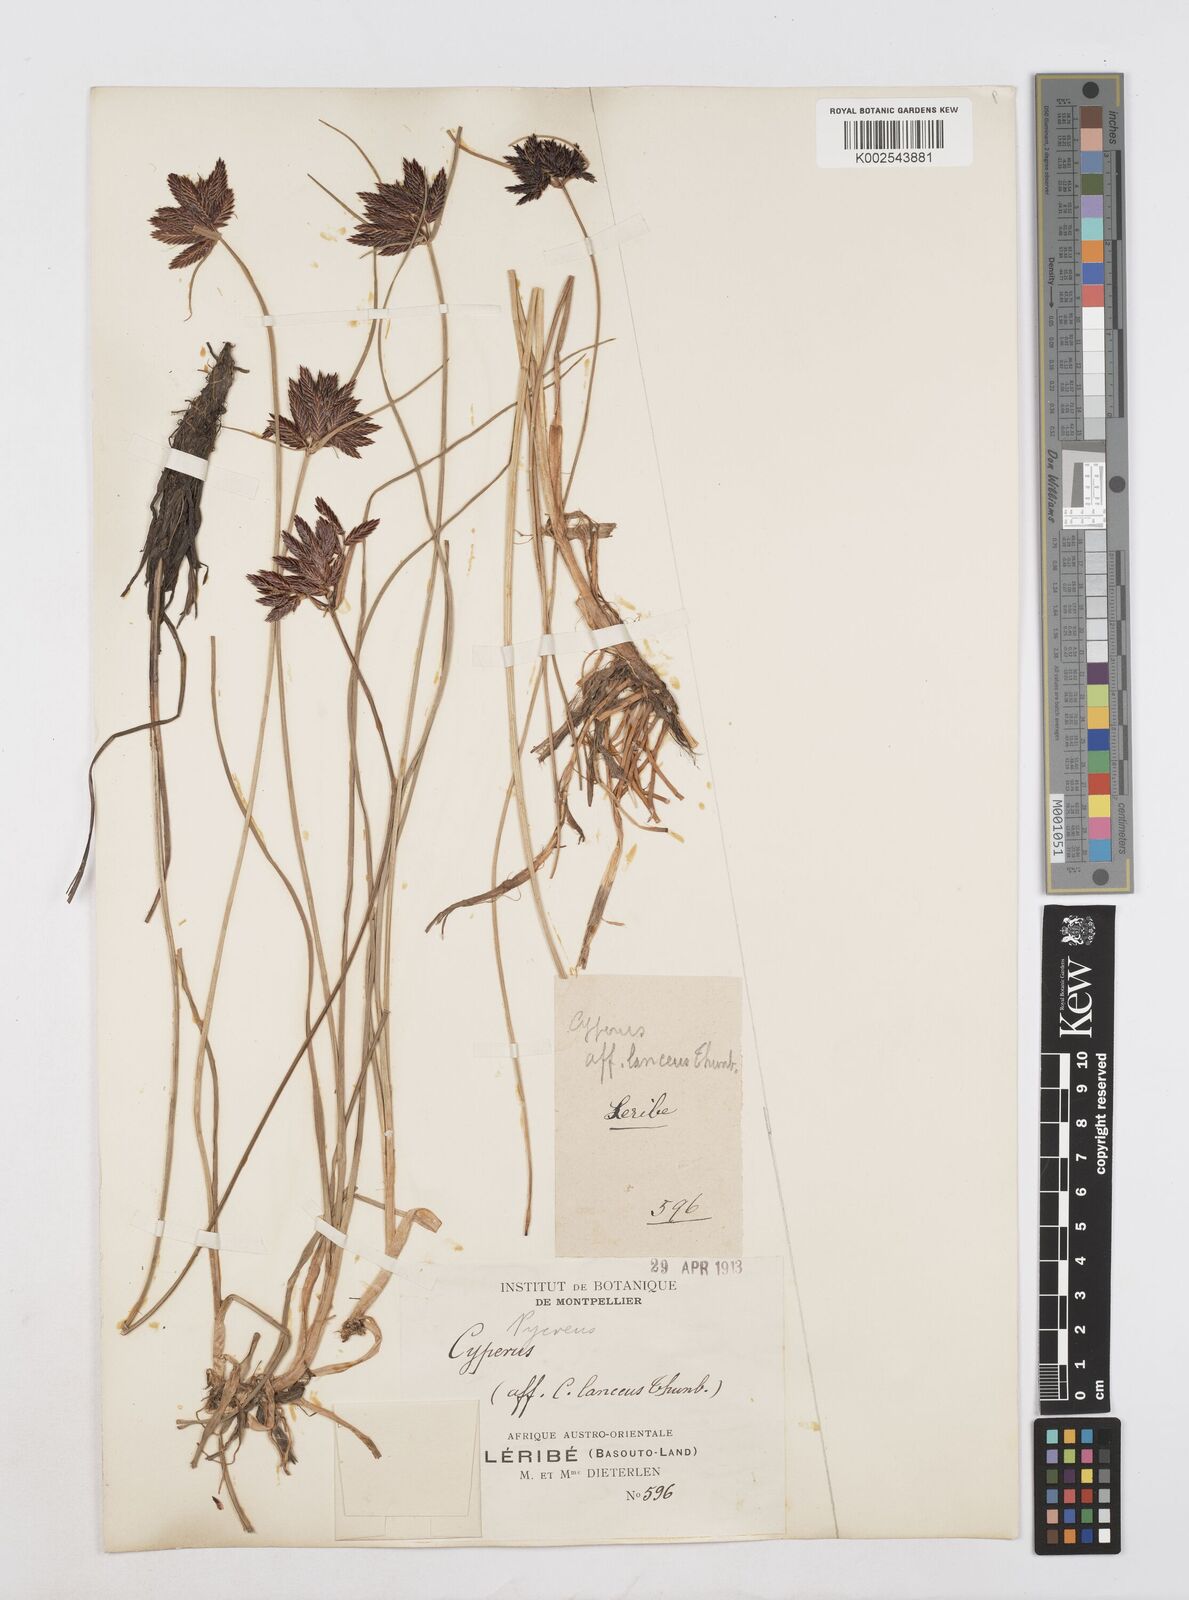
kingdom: Plantae
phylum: Tracheophyta
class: Liliopsida
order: Poales
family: Cyperaceae
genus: Cyperus
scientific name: Cyperus nigricans
